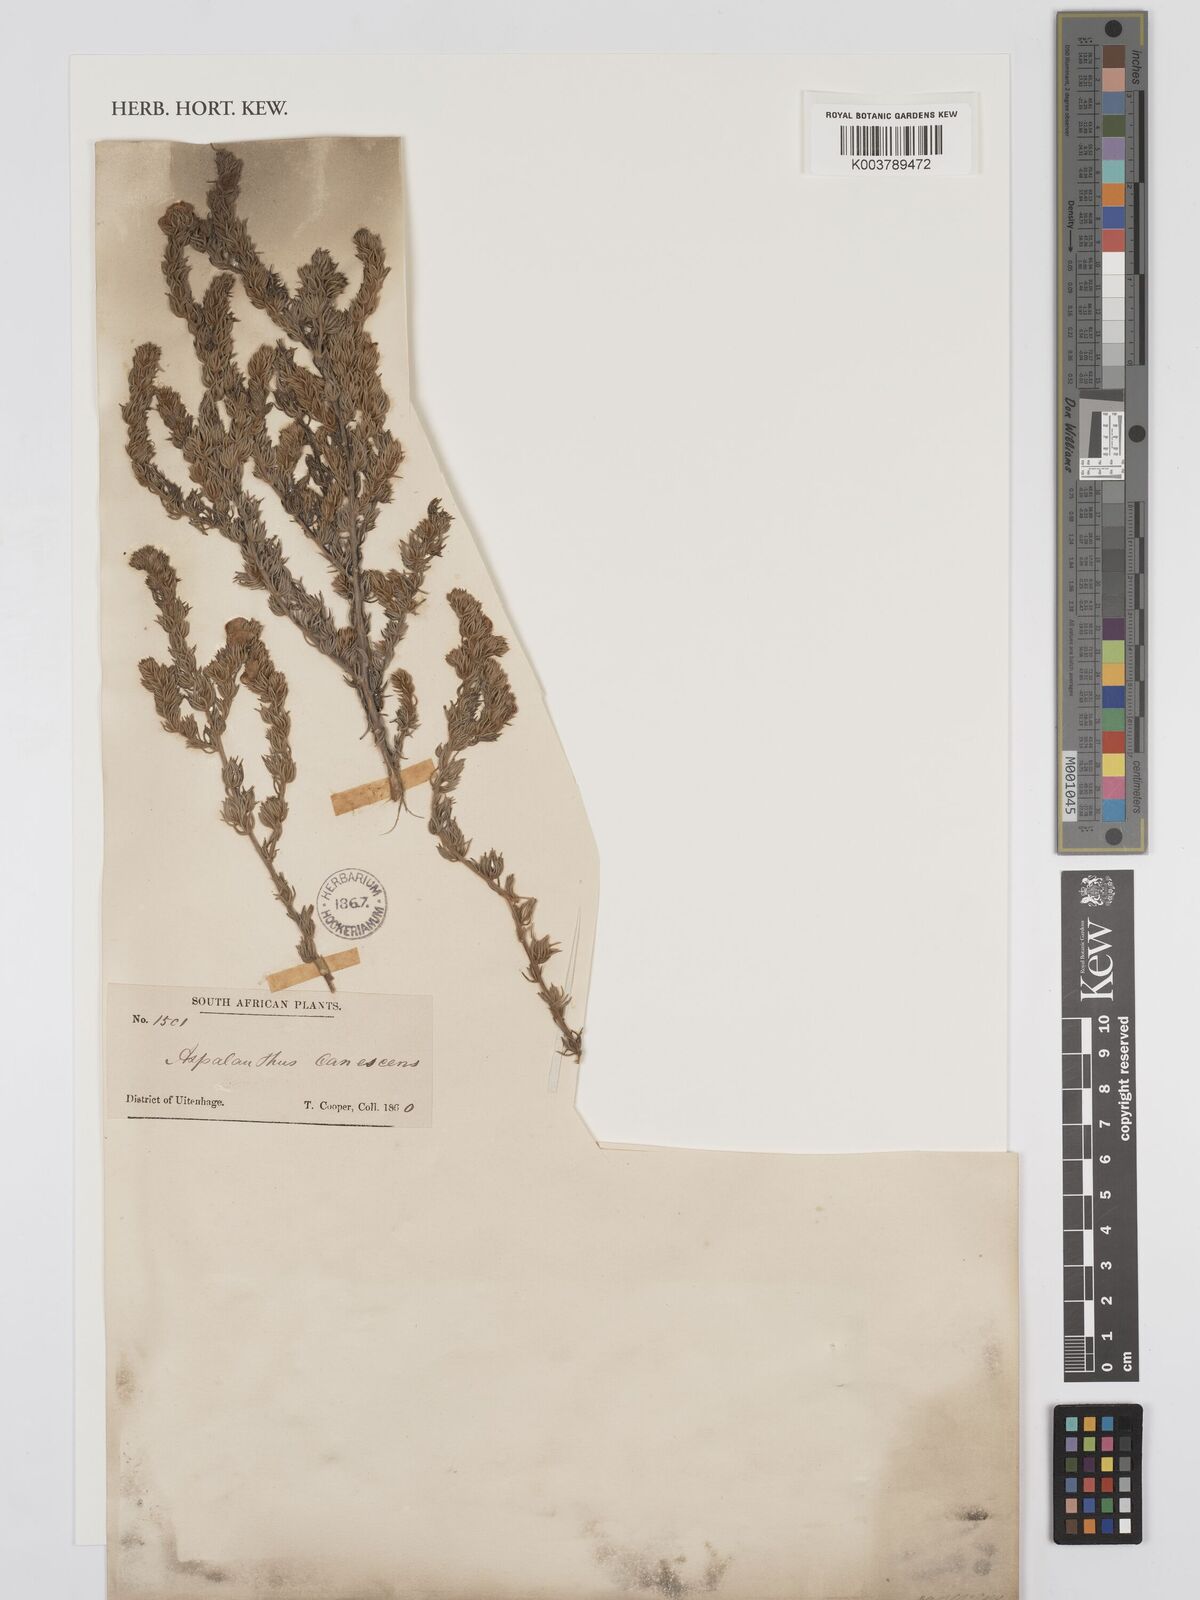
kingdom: Plantae
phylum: Tracheophyta
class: Magnoliopsida
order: Fabales
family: Fabaceae
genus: Aspalathus
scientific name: Aspalathus laricifolia
